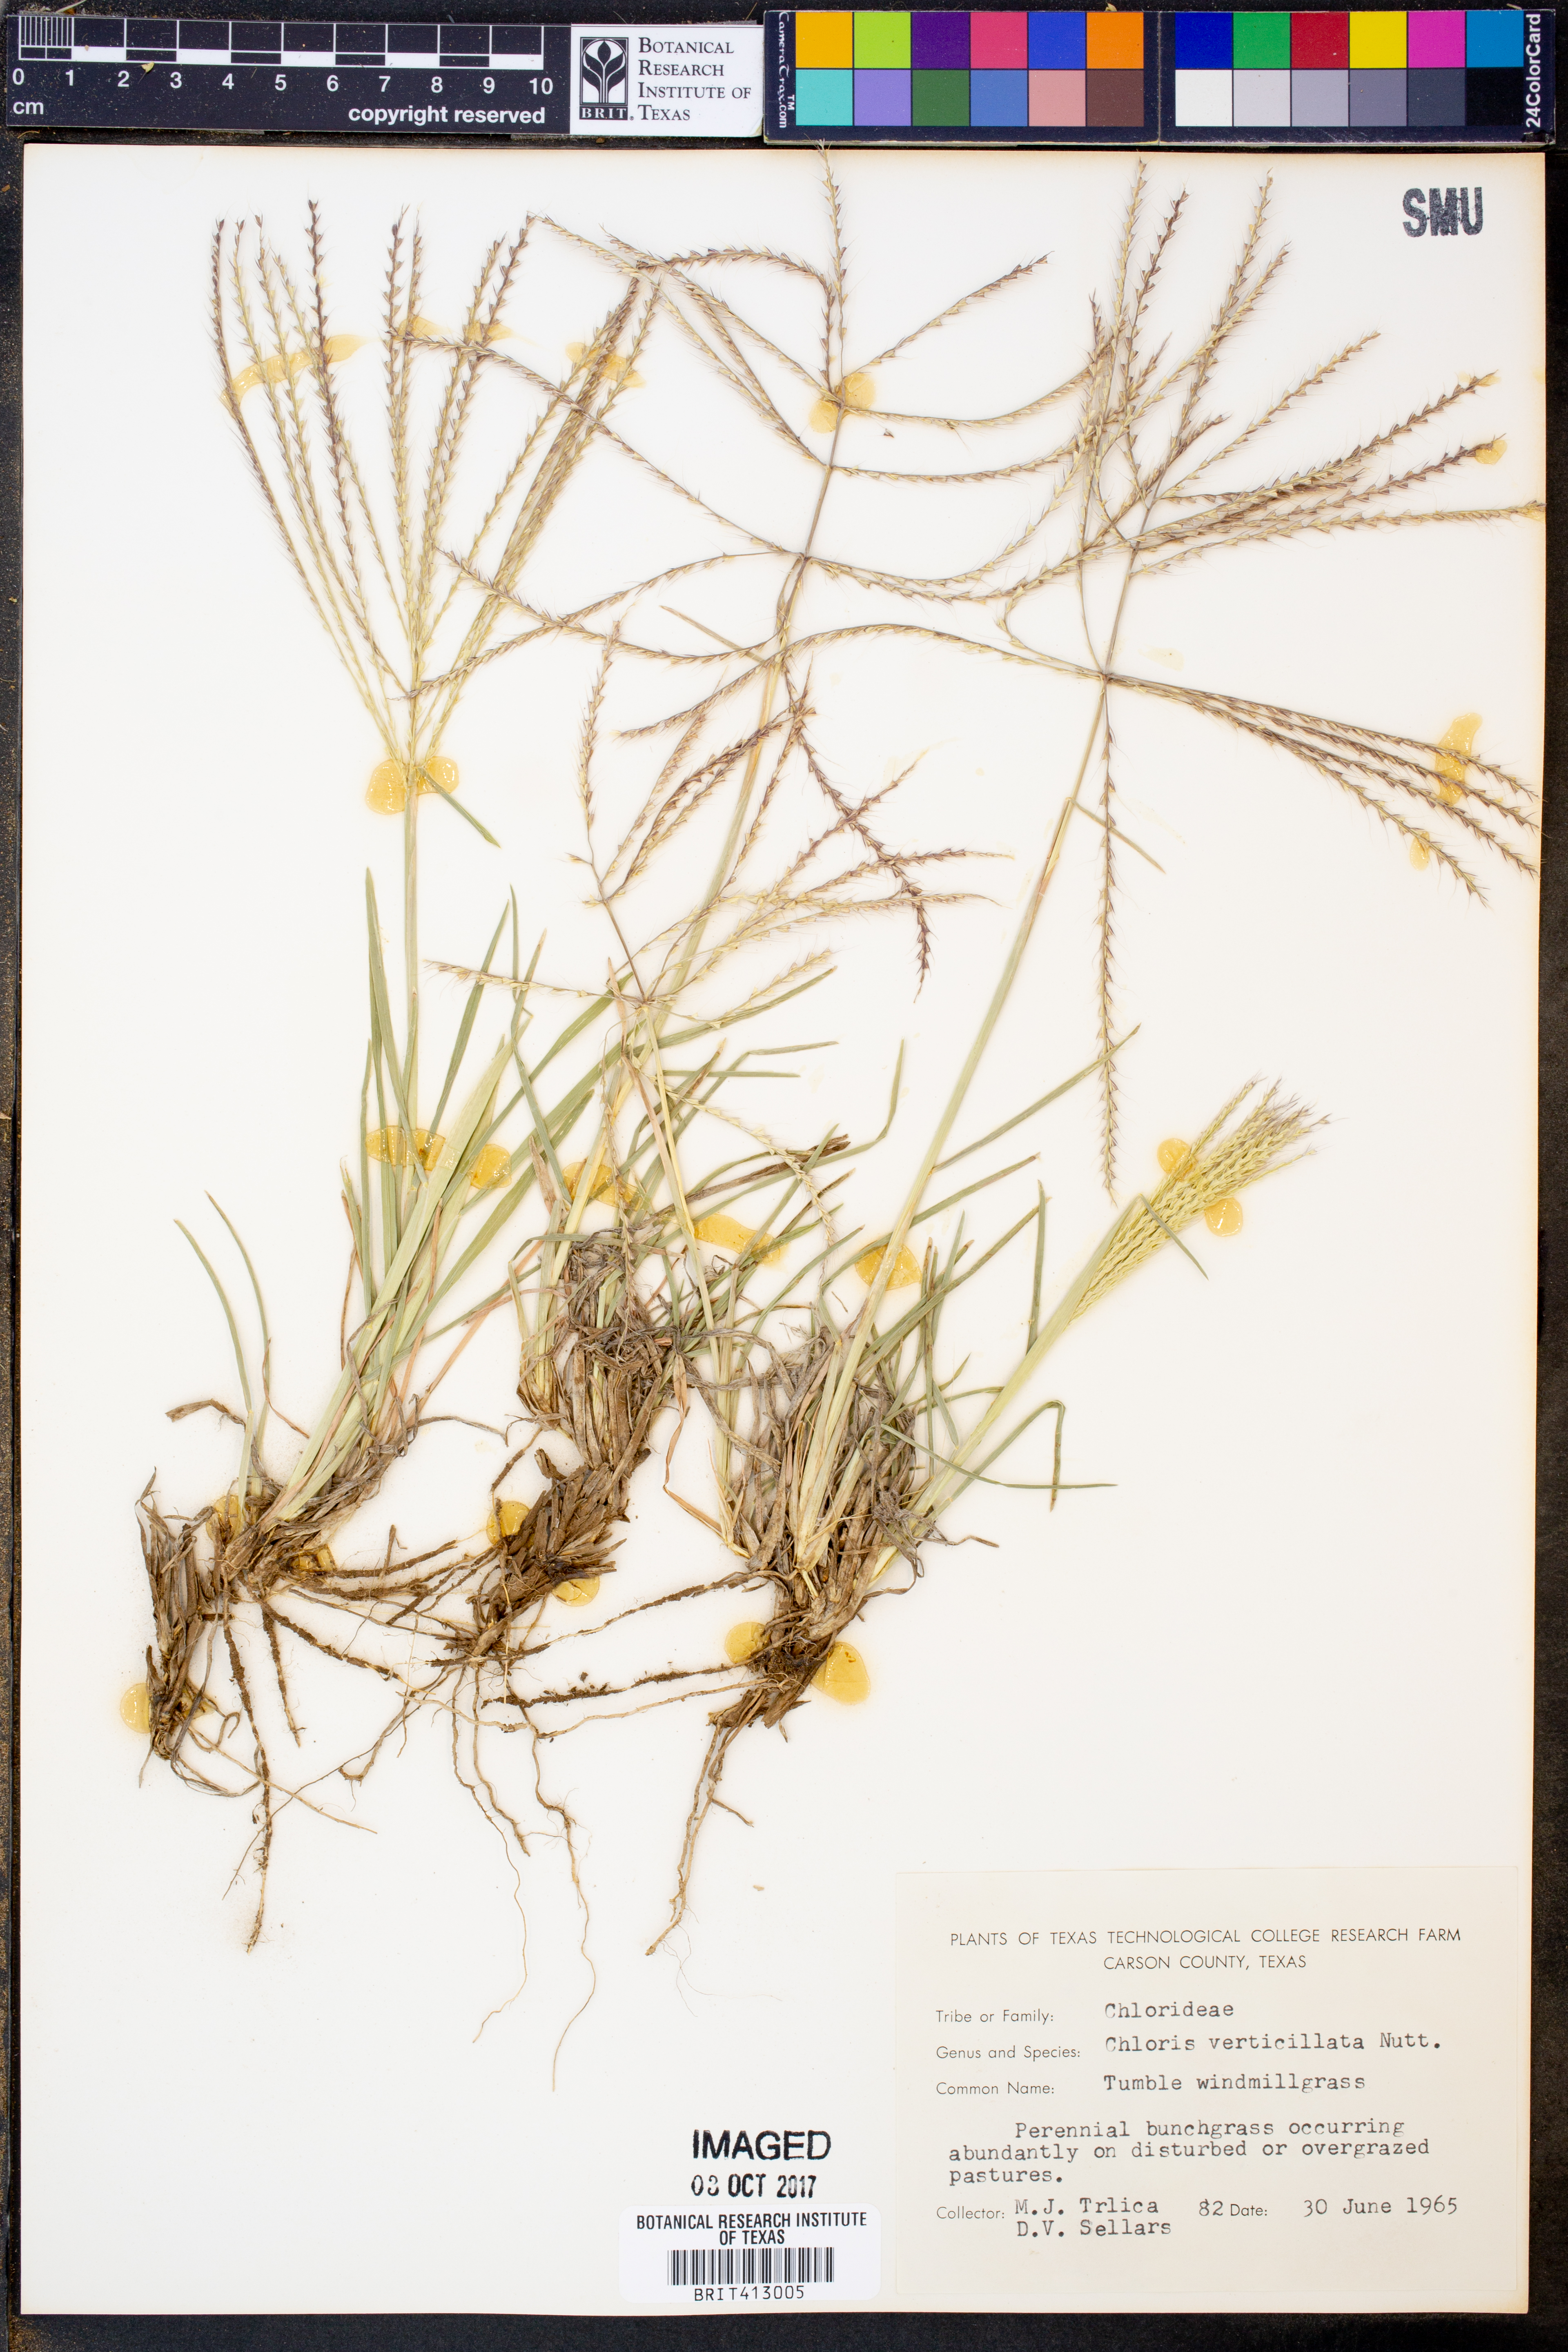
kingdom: Plantae
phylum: Tracheophyta
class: Liliopsida
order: Poales
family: Poaceae
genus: Chloris
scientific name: Chloris verticillata
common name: Tumble windmill grass
